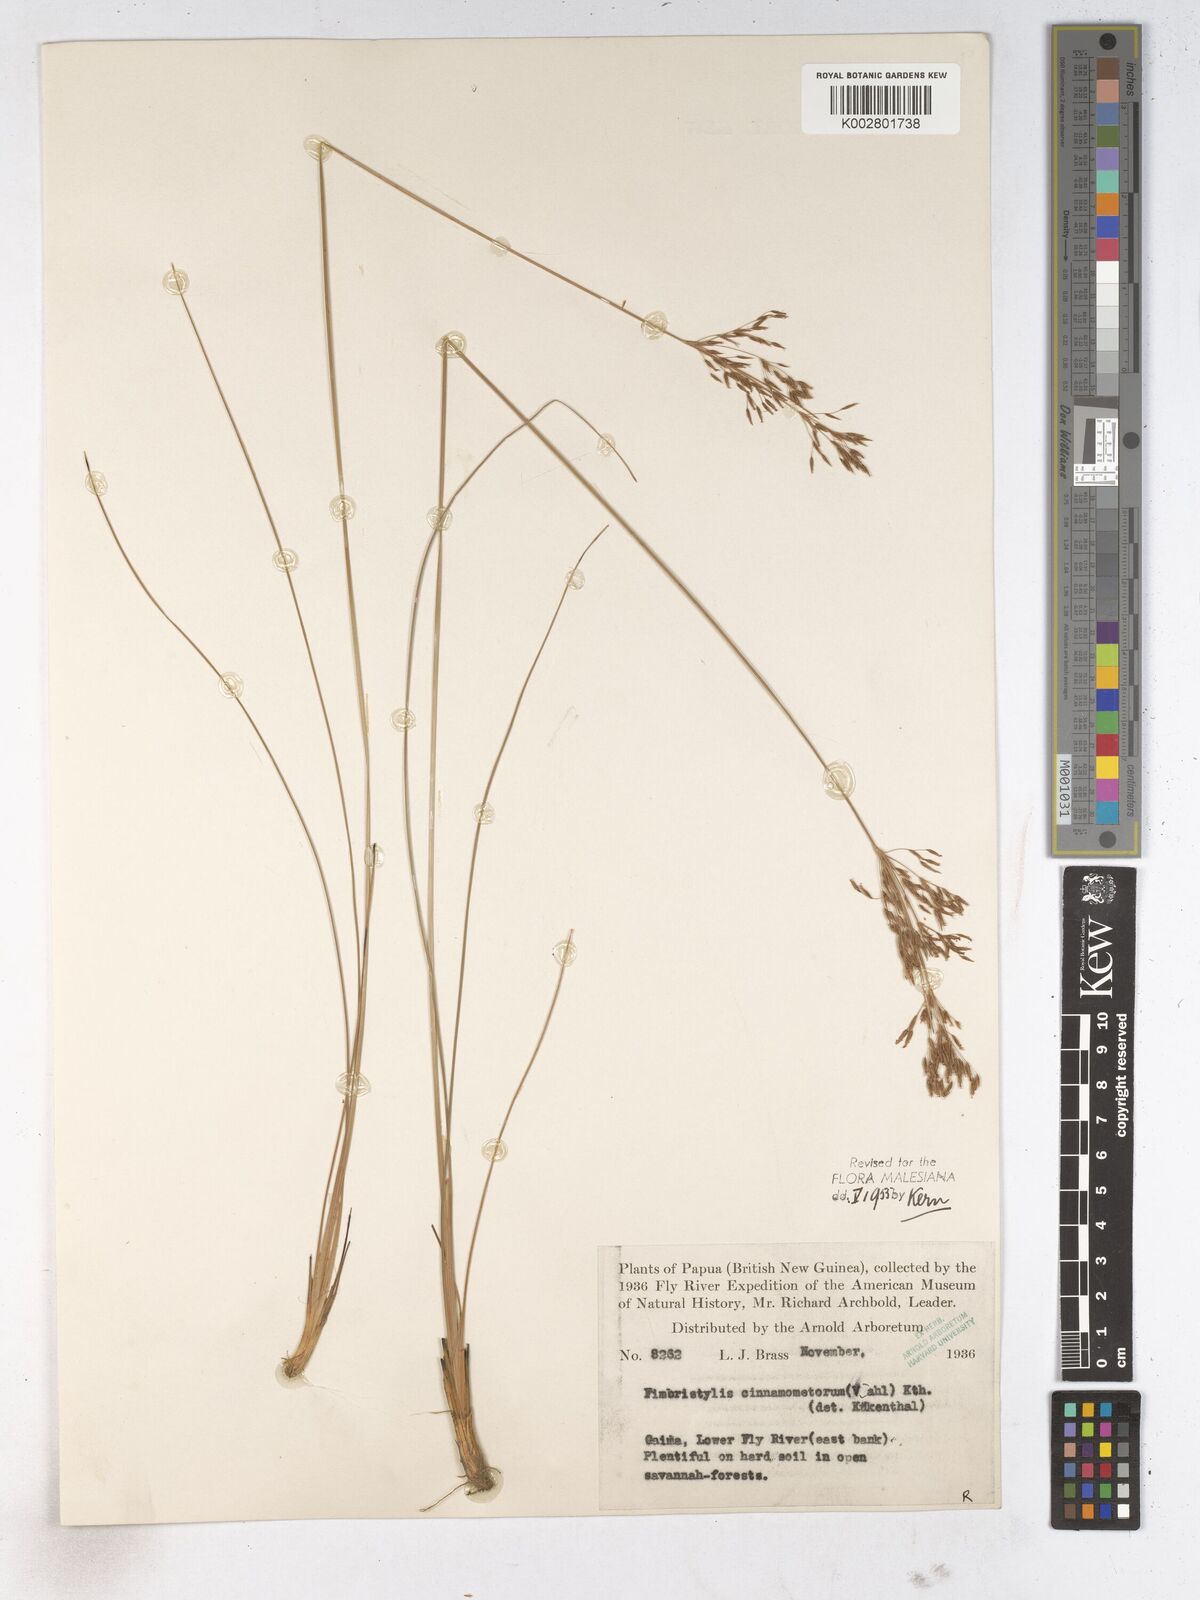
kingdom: Plantae
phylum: Tracheophyta
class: Liliopsida
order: Poales
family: Cyperaceae
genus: Fimbristylis
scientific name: Fimbristylis cinnamometorum
